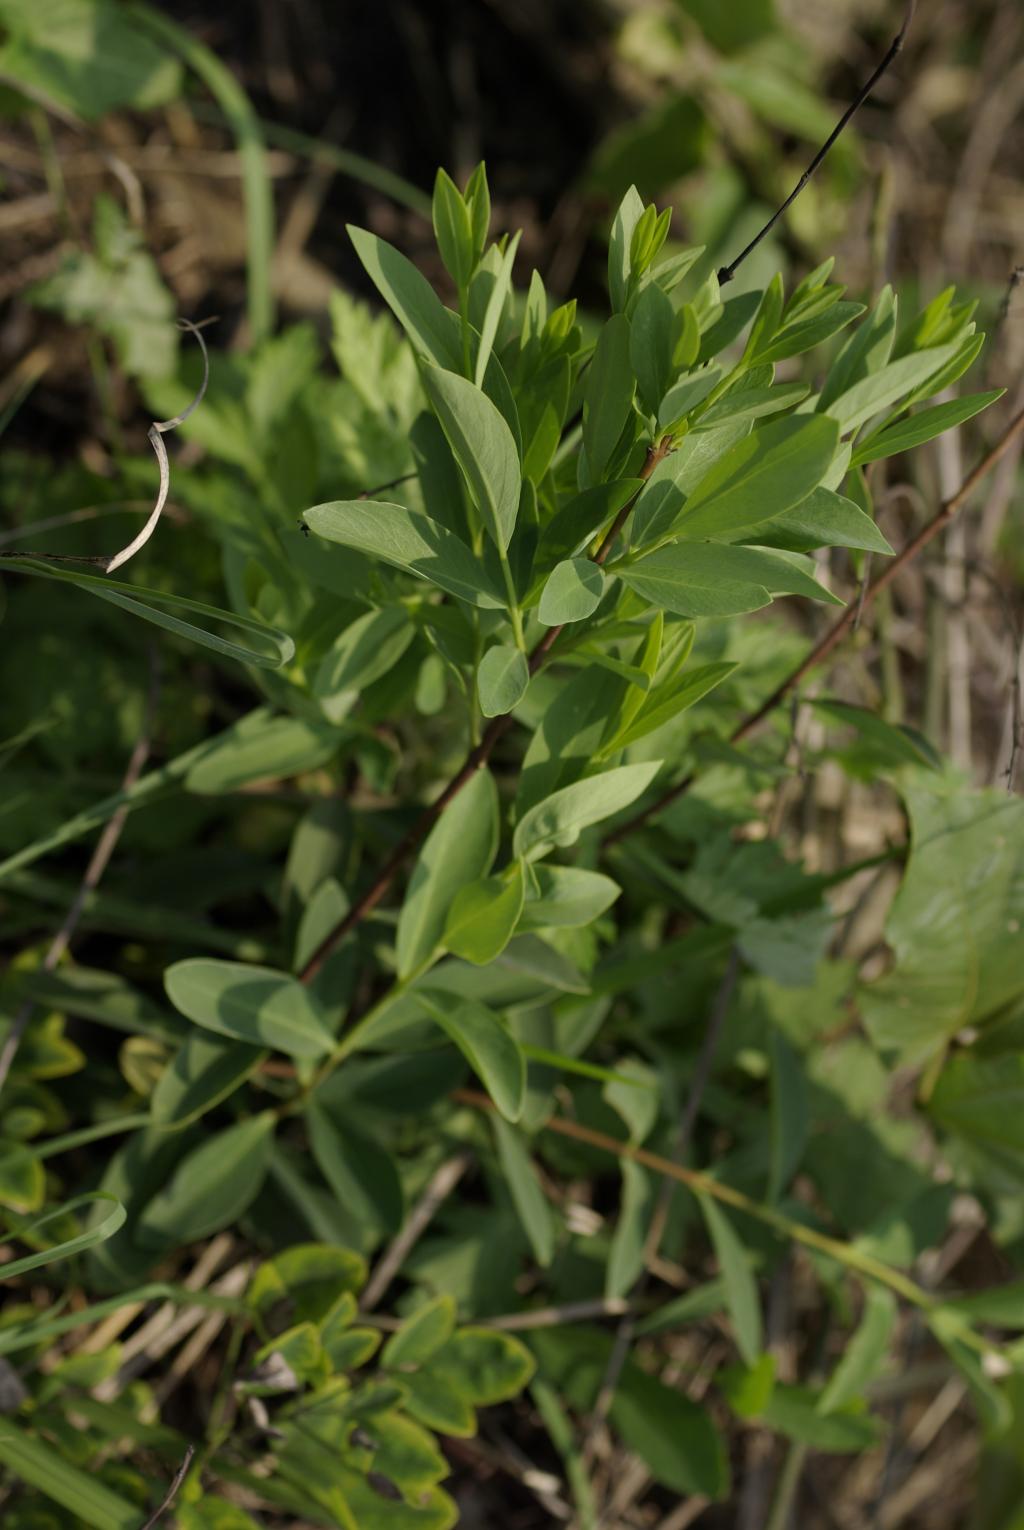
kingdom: Plantae
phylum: Tracheophyta
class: Magnoliopsida
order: Malvales
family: Thymelaeaceae
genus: Wikstroemia
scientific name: Wikstroemia indica
